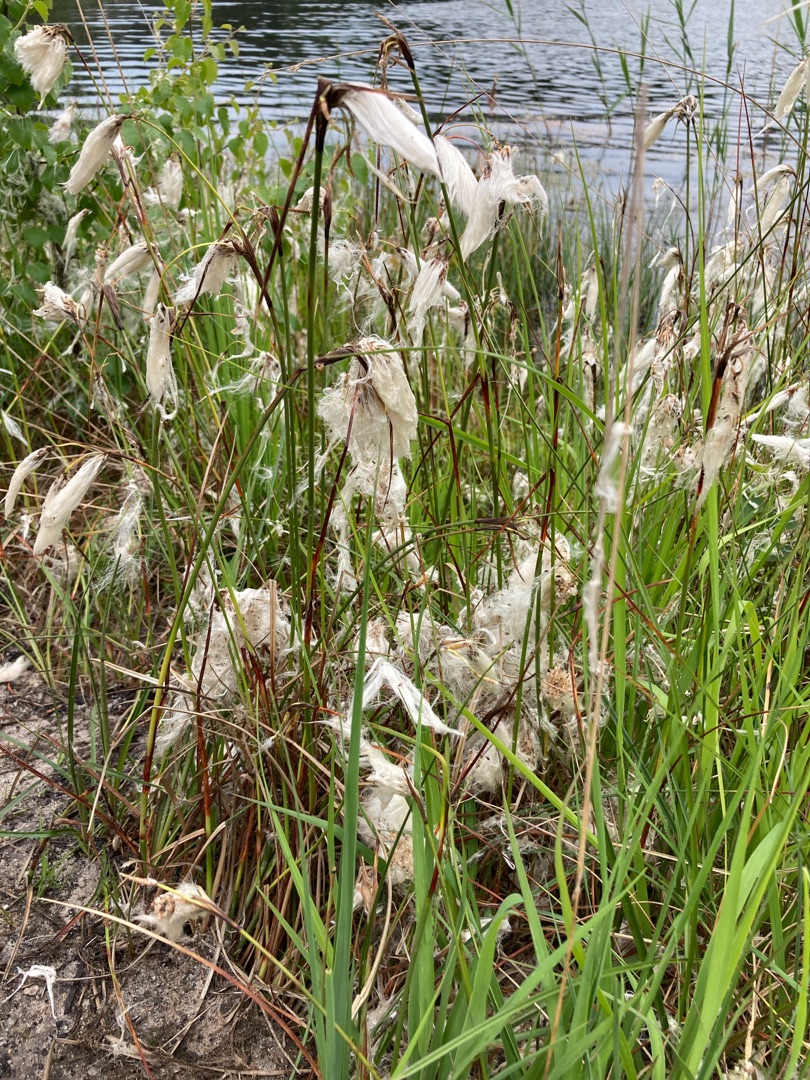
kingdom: Plantae
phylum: Tracheophyta
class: Liliopsida
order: Poales
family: Cyperaceae
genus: Eriophorum
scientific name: Eriophorum angustifolium
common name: Smalbladet kæruld
